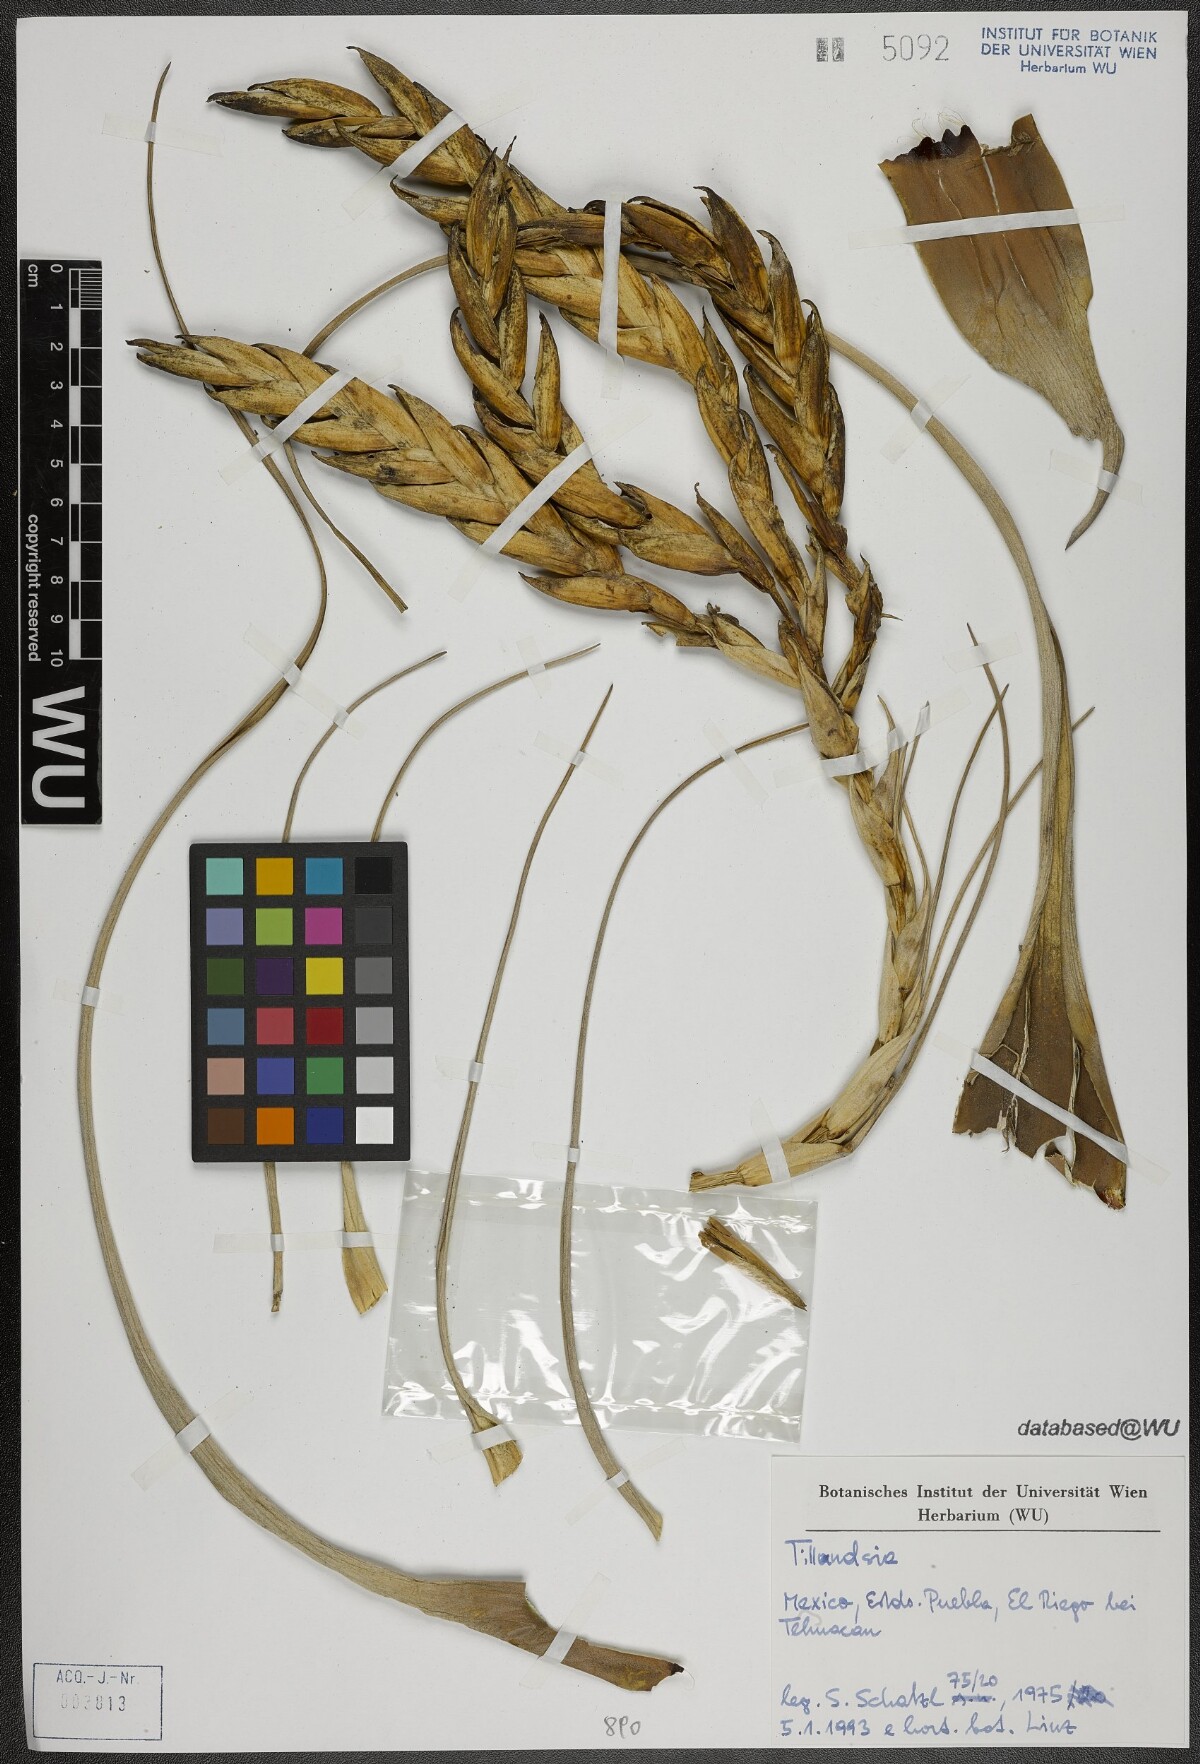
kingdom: Plantae
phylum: Tracheophyta
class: Liliopsida
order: Poales
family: Bromeliaceae
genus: Tillandsia
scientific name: Tillandsia fasciculata
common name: Giant airplant
